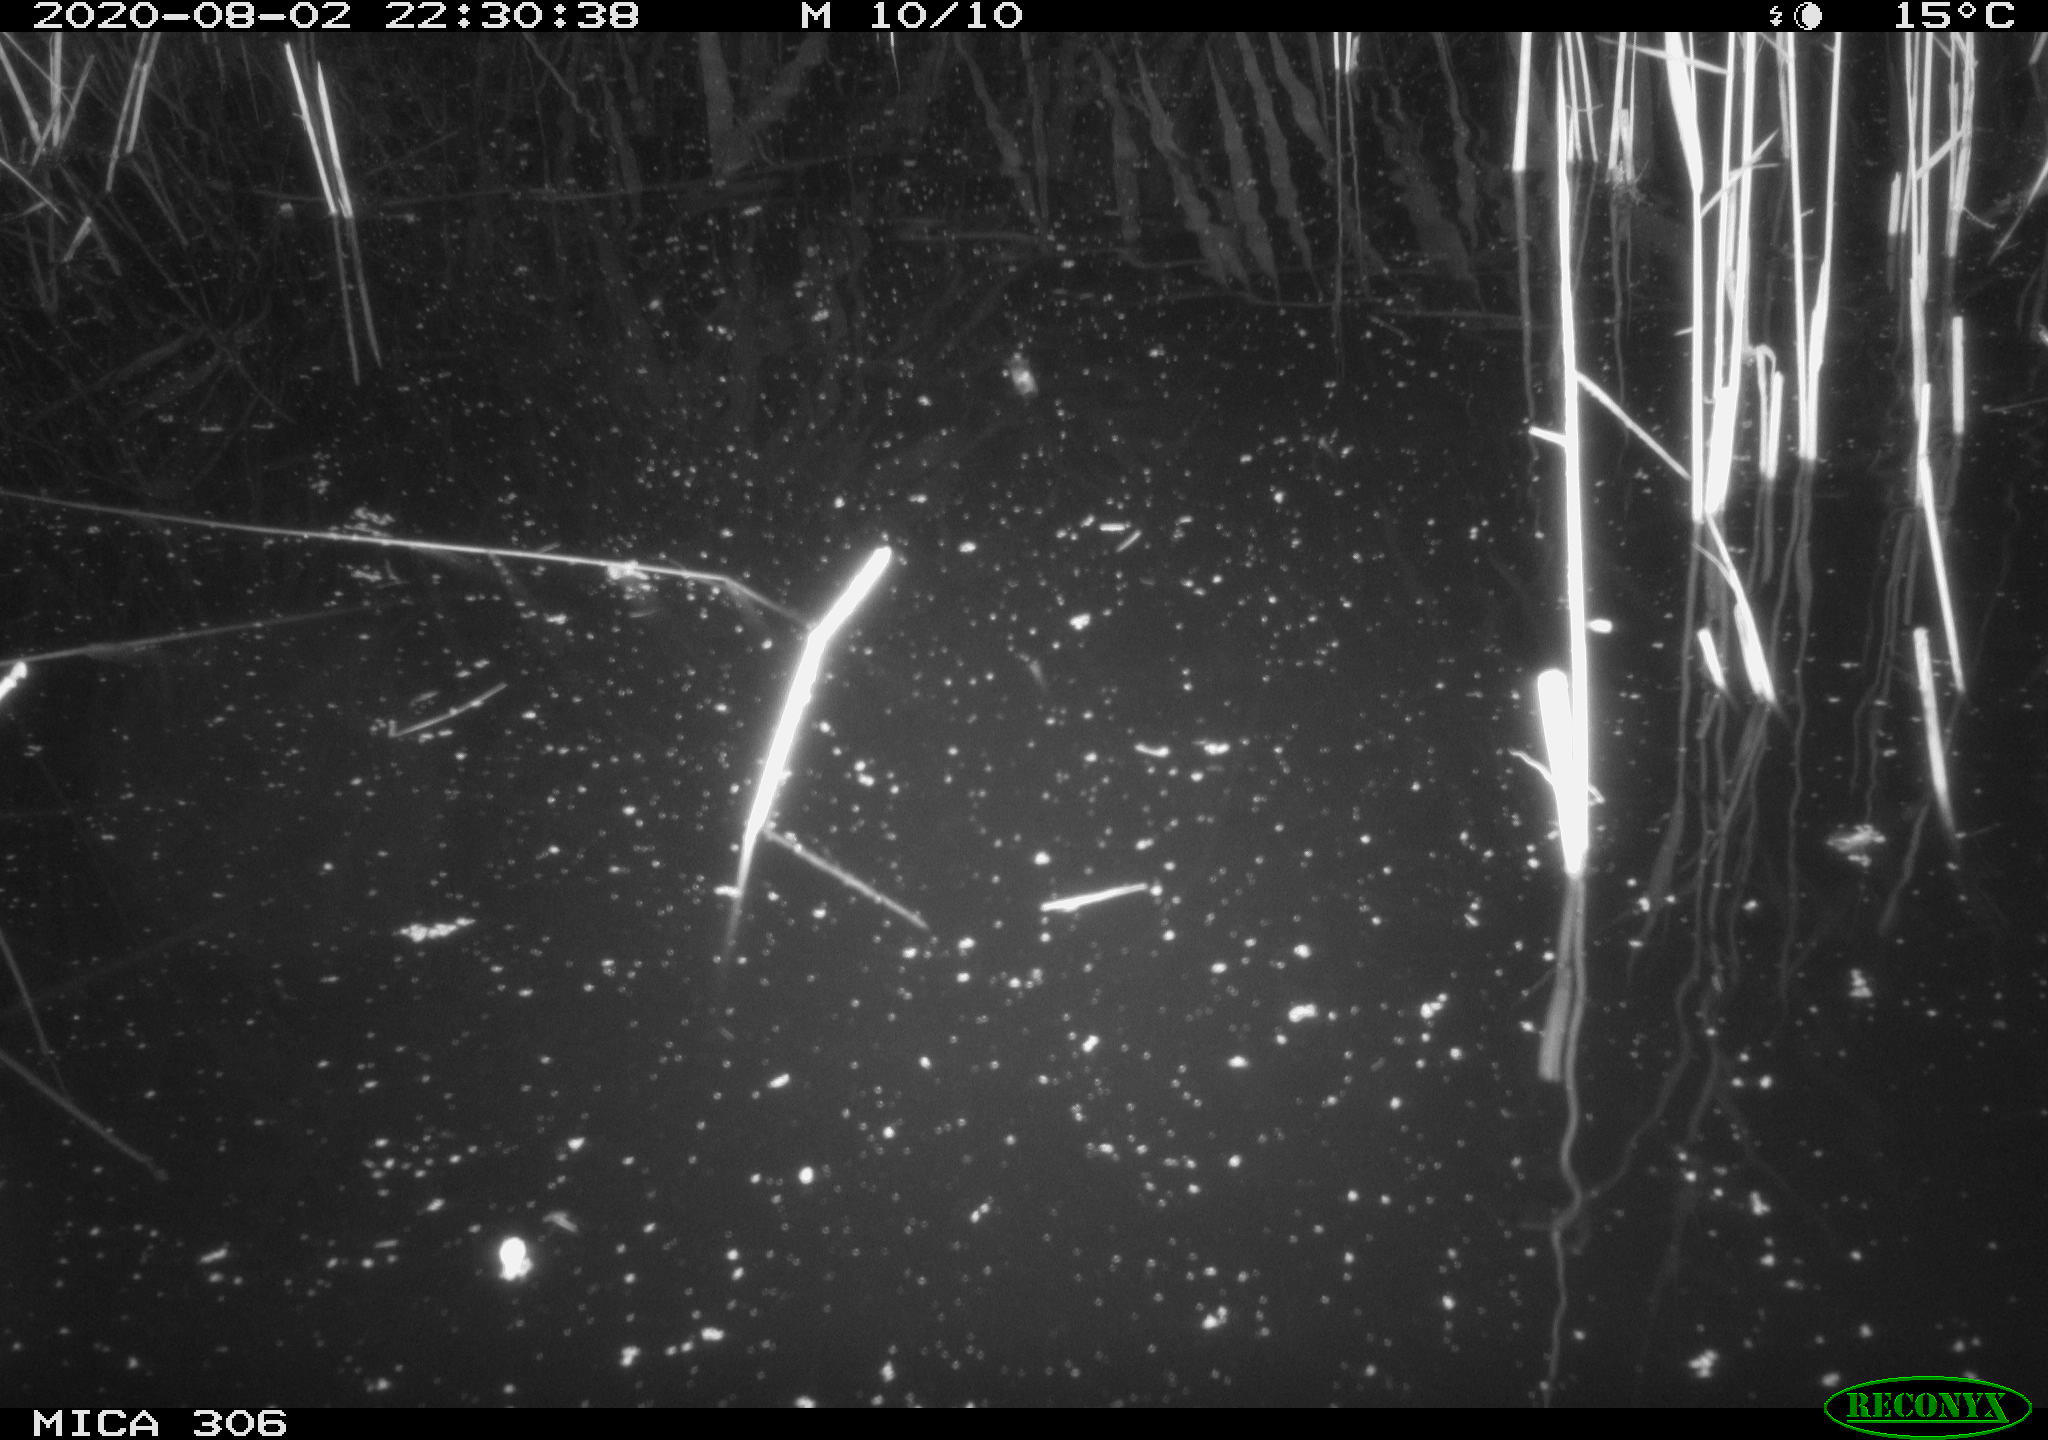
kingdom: Animalia
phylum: Chordata
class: Mammalia
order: Rodentia
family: Muridae
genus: Rattus
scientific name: Rattus norvegicus
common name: Brown rat
